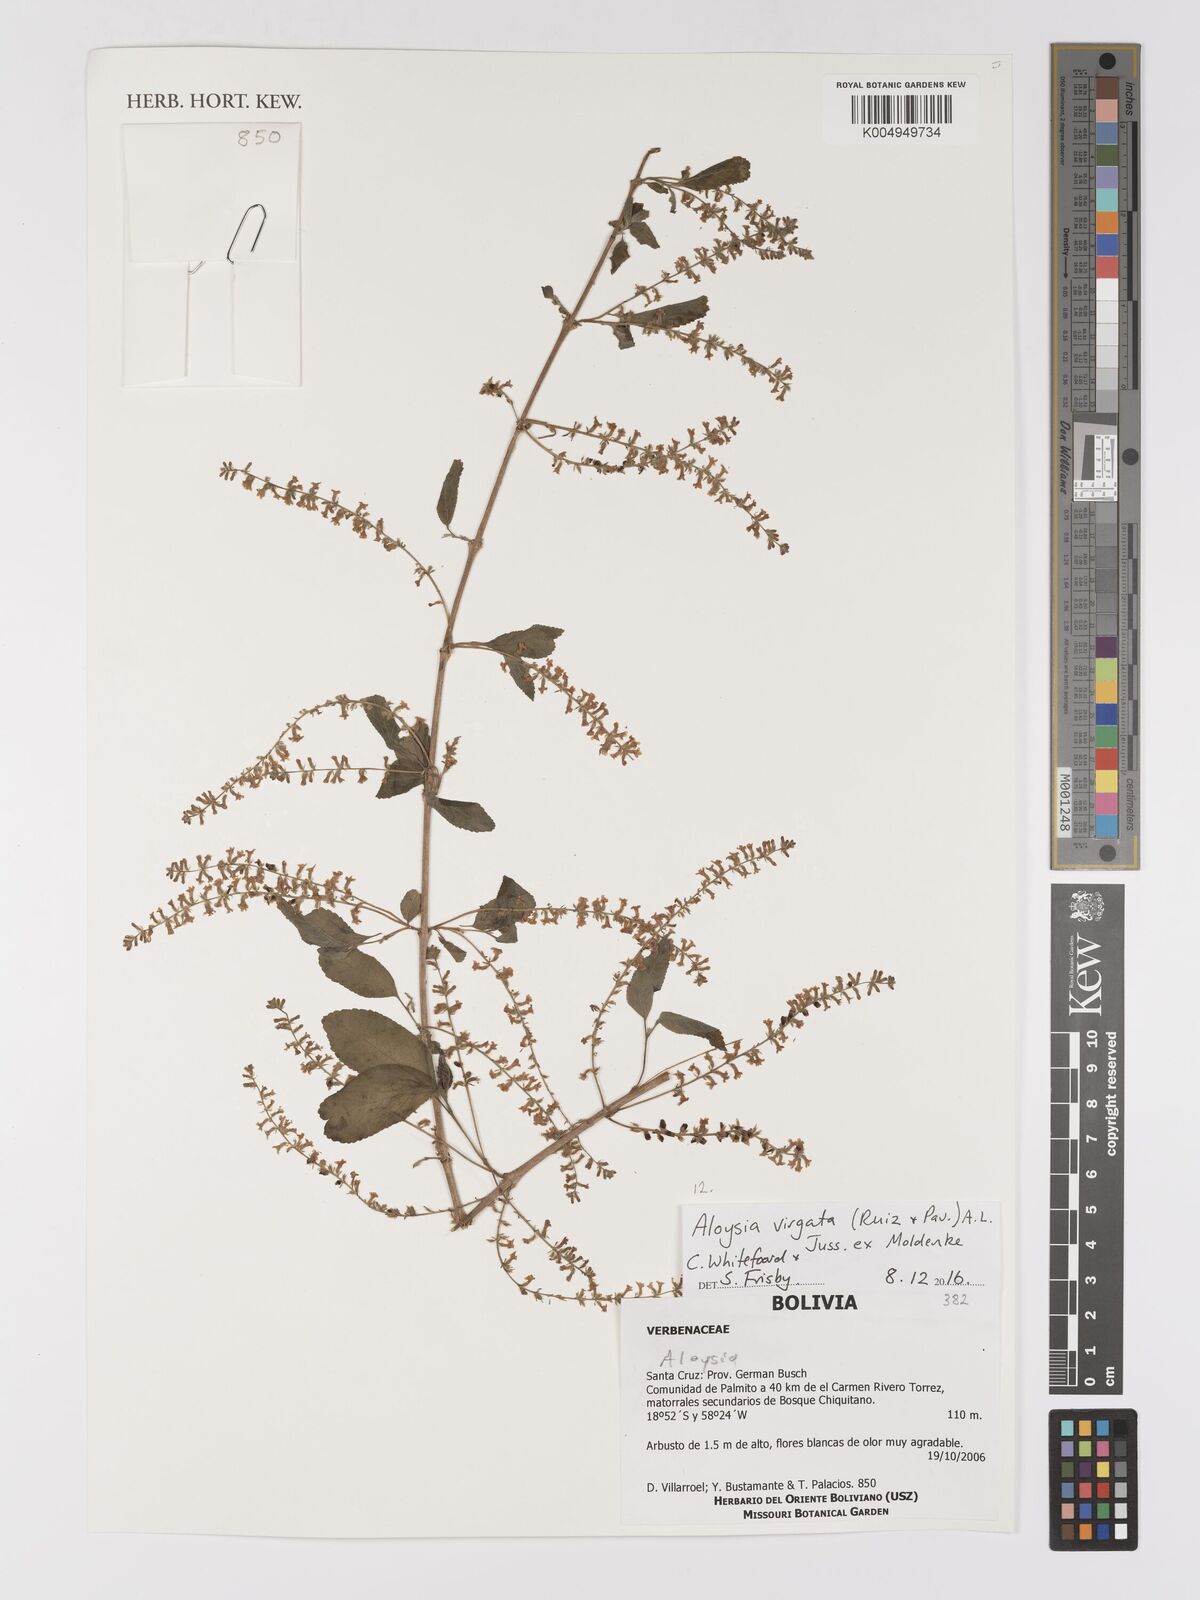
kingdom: Plantae
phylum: Tracheophyta
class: Magnoliopsida
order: Lamiales
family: Verbenaceae
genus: Aloysia
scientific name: Aloysia virgata
